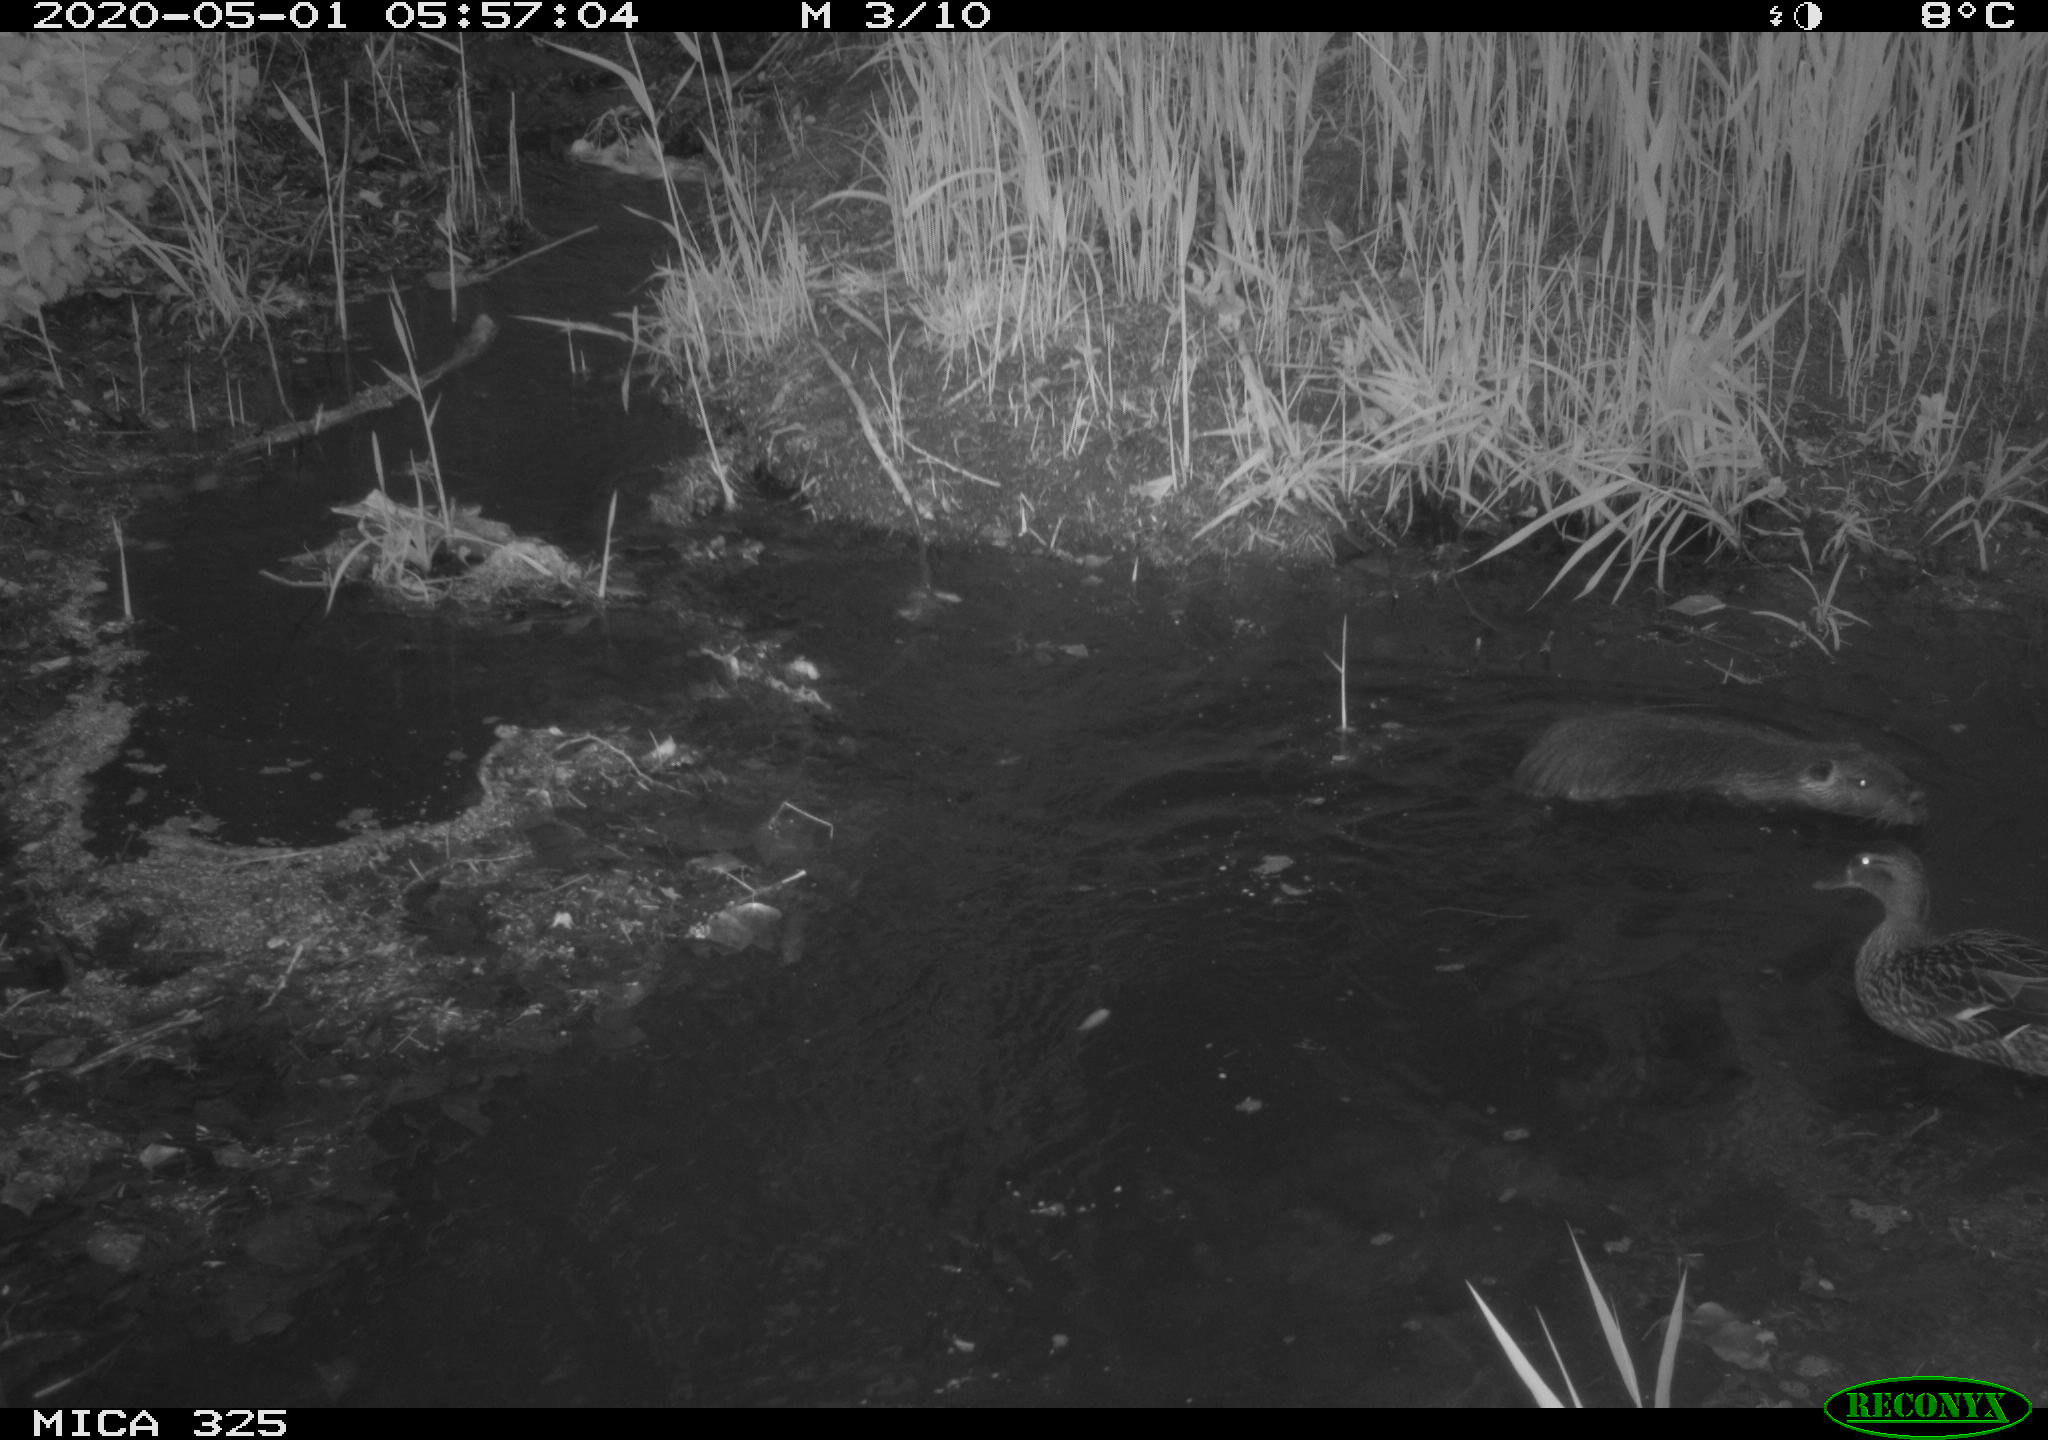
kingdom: Animalia
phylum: Chordata
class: Mammalia
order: Rodentia
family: Myocastoridae
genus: Myocastor
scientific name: Myocastor coypus
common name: Coypu
